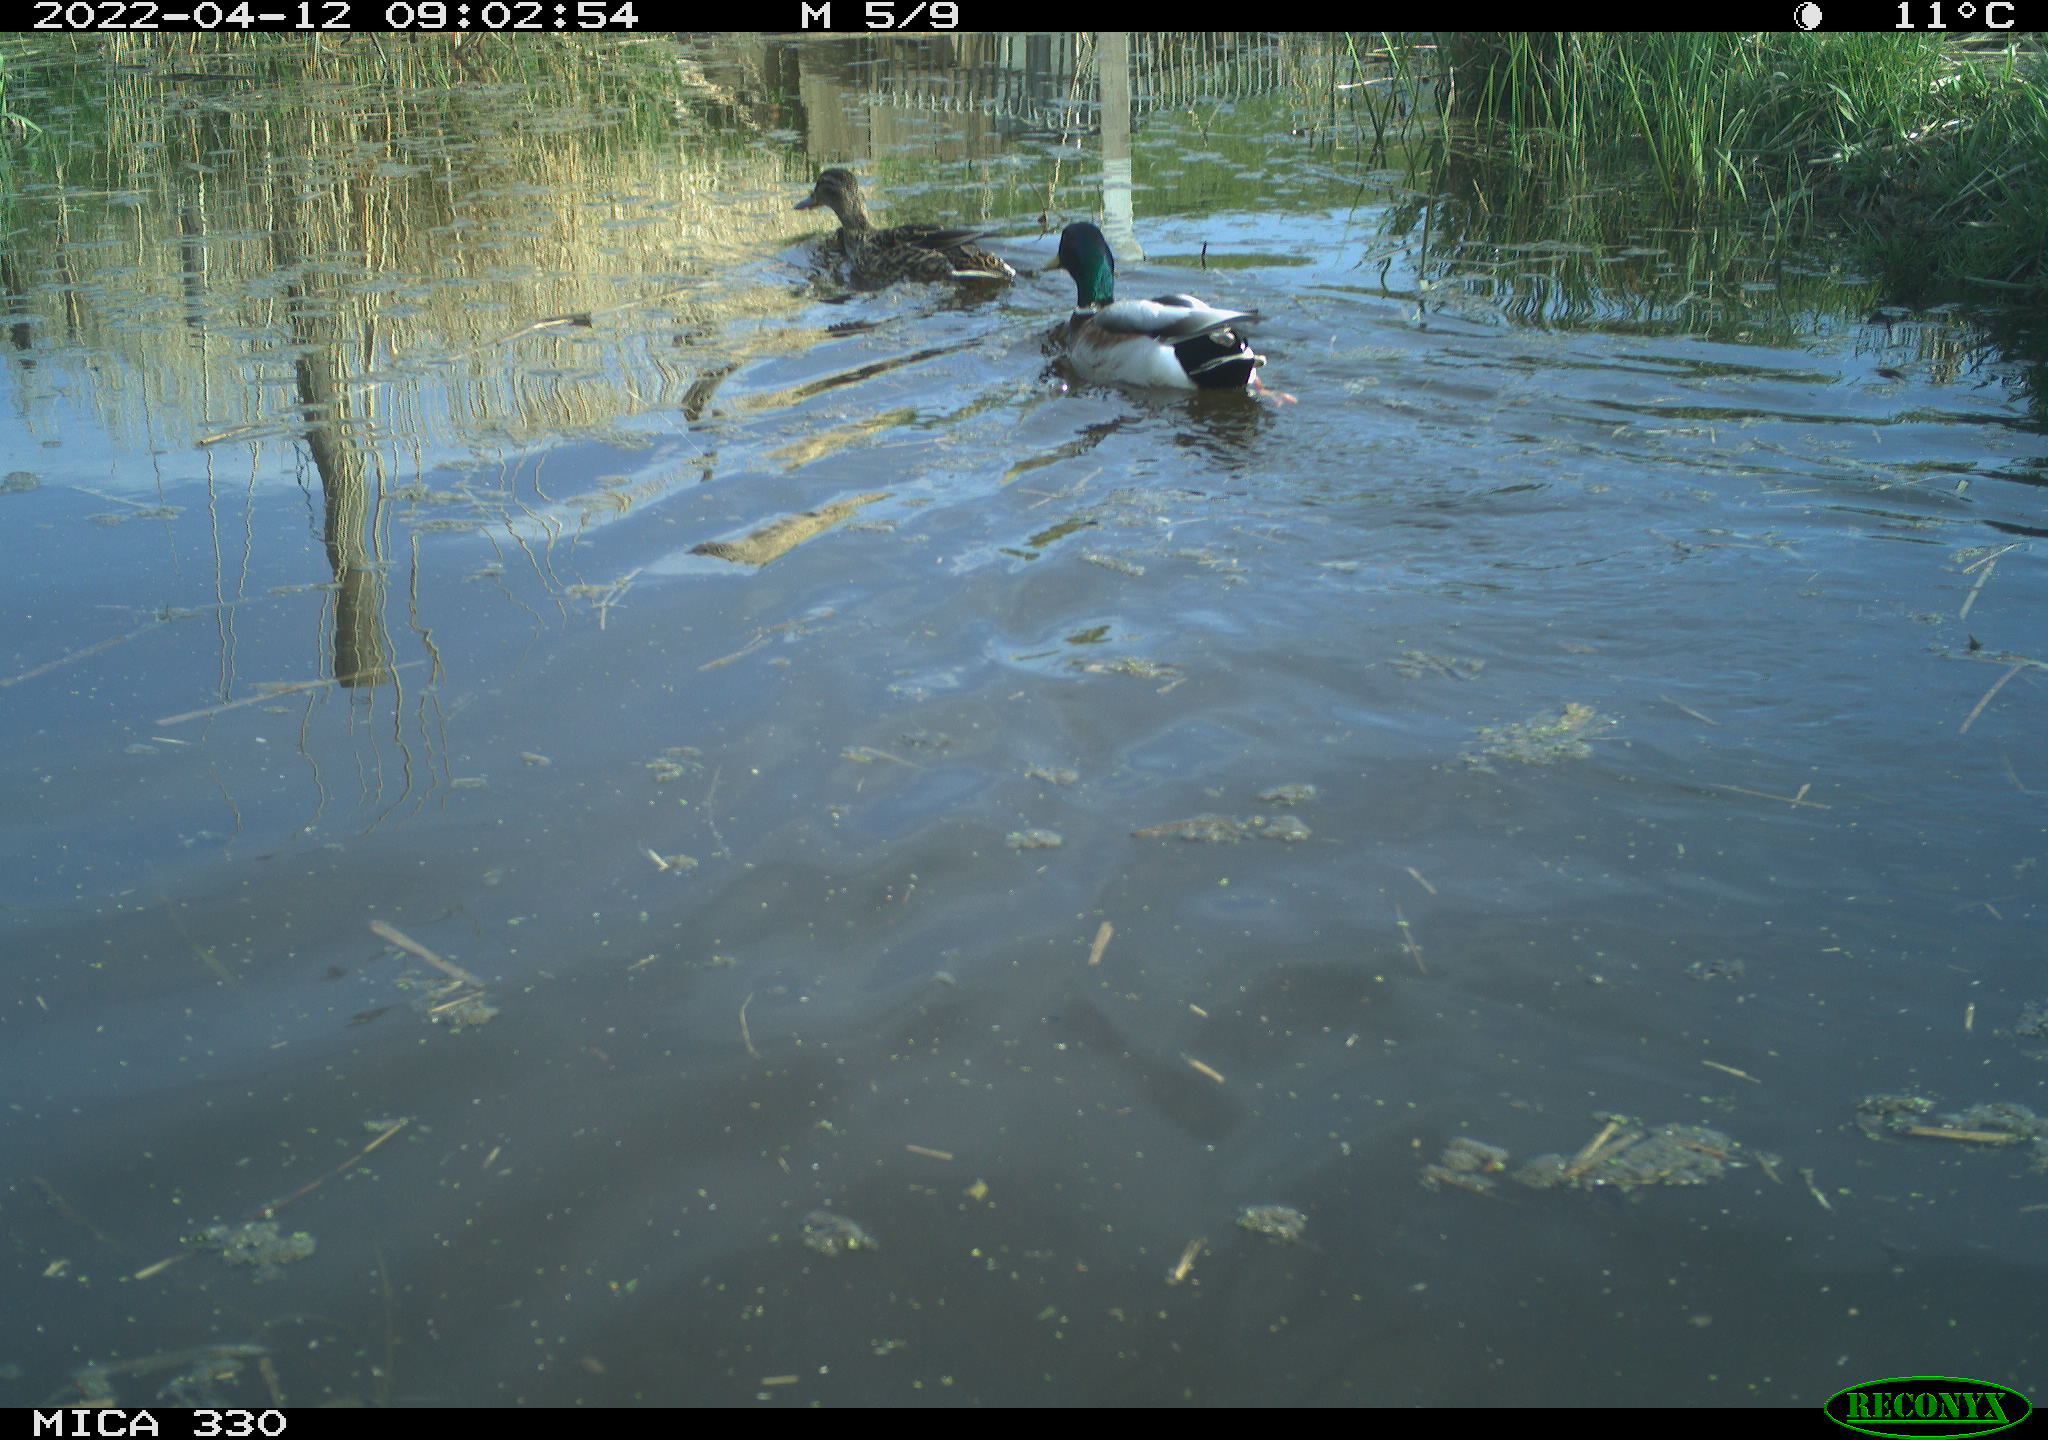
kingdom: Animalia
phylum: Chordata
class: Aves
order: Anseriformes
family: Anatidae
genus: Mareca
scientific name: Mareca strepera
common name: Gadwall
